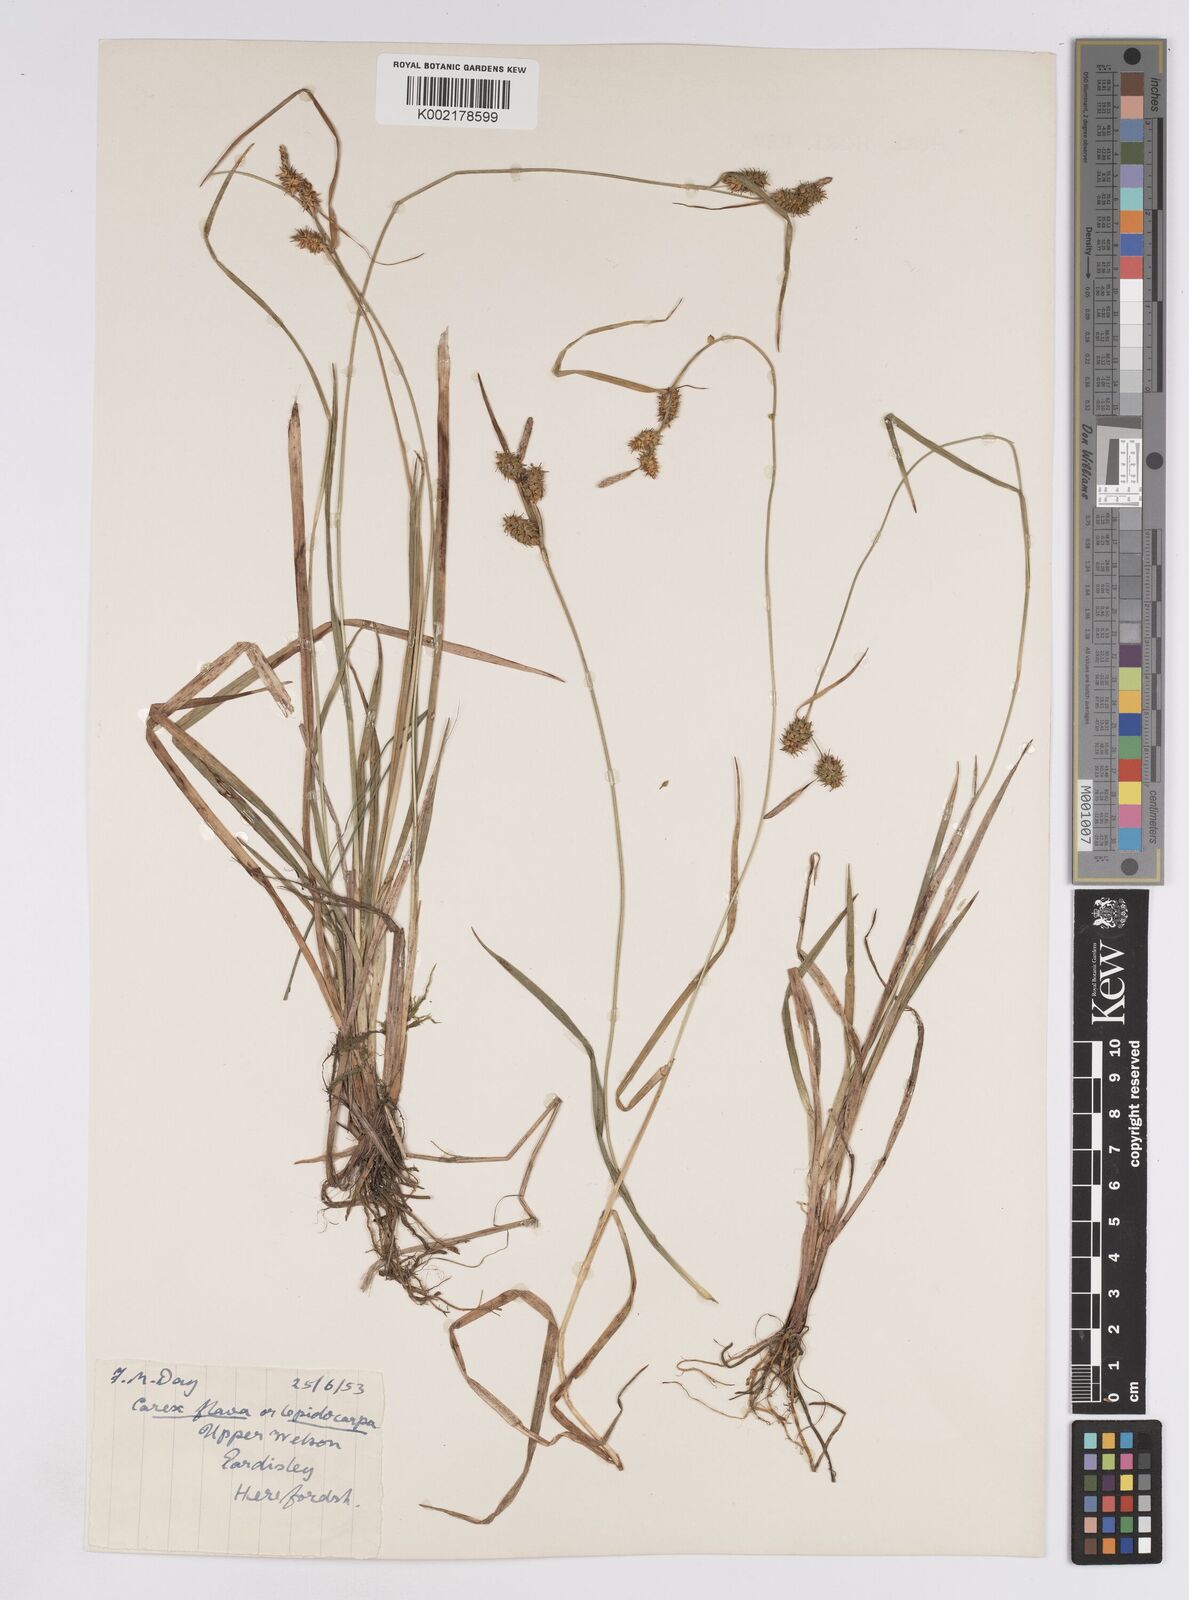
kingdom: Plantae
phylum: Tracheophyta
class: Liliopsida
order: Poales
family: Cyperaceae
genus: Carex
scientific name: Carex lepidocarpa
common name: Long-stalked yellow-sedge
